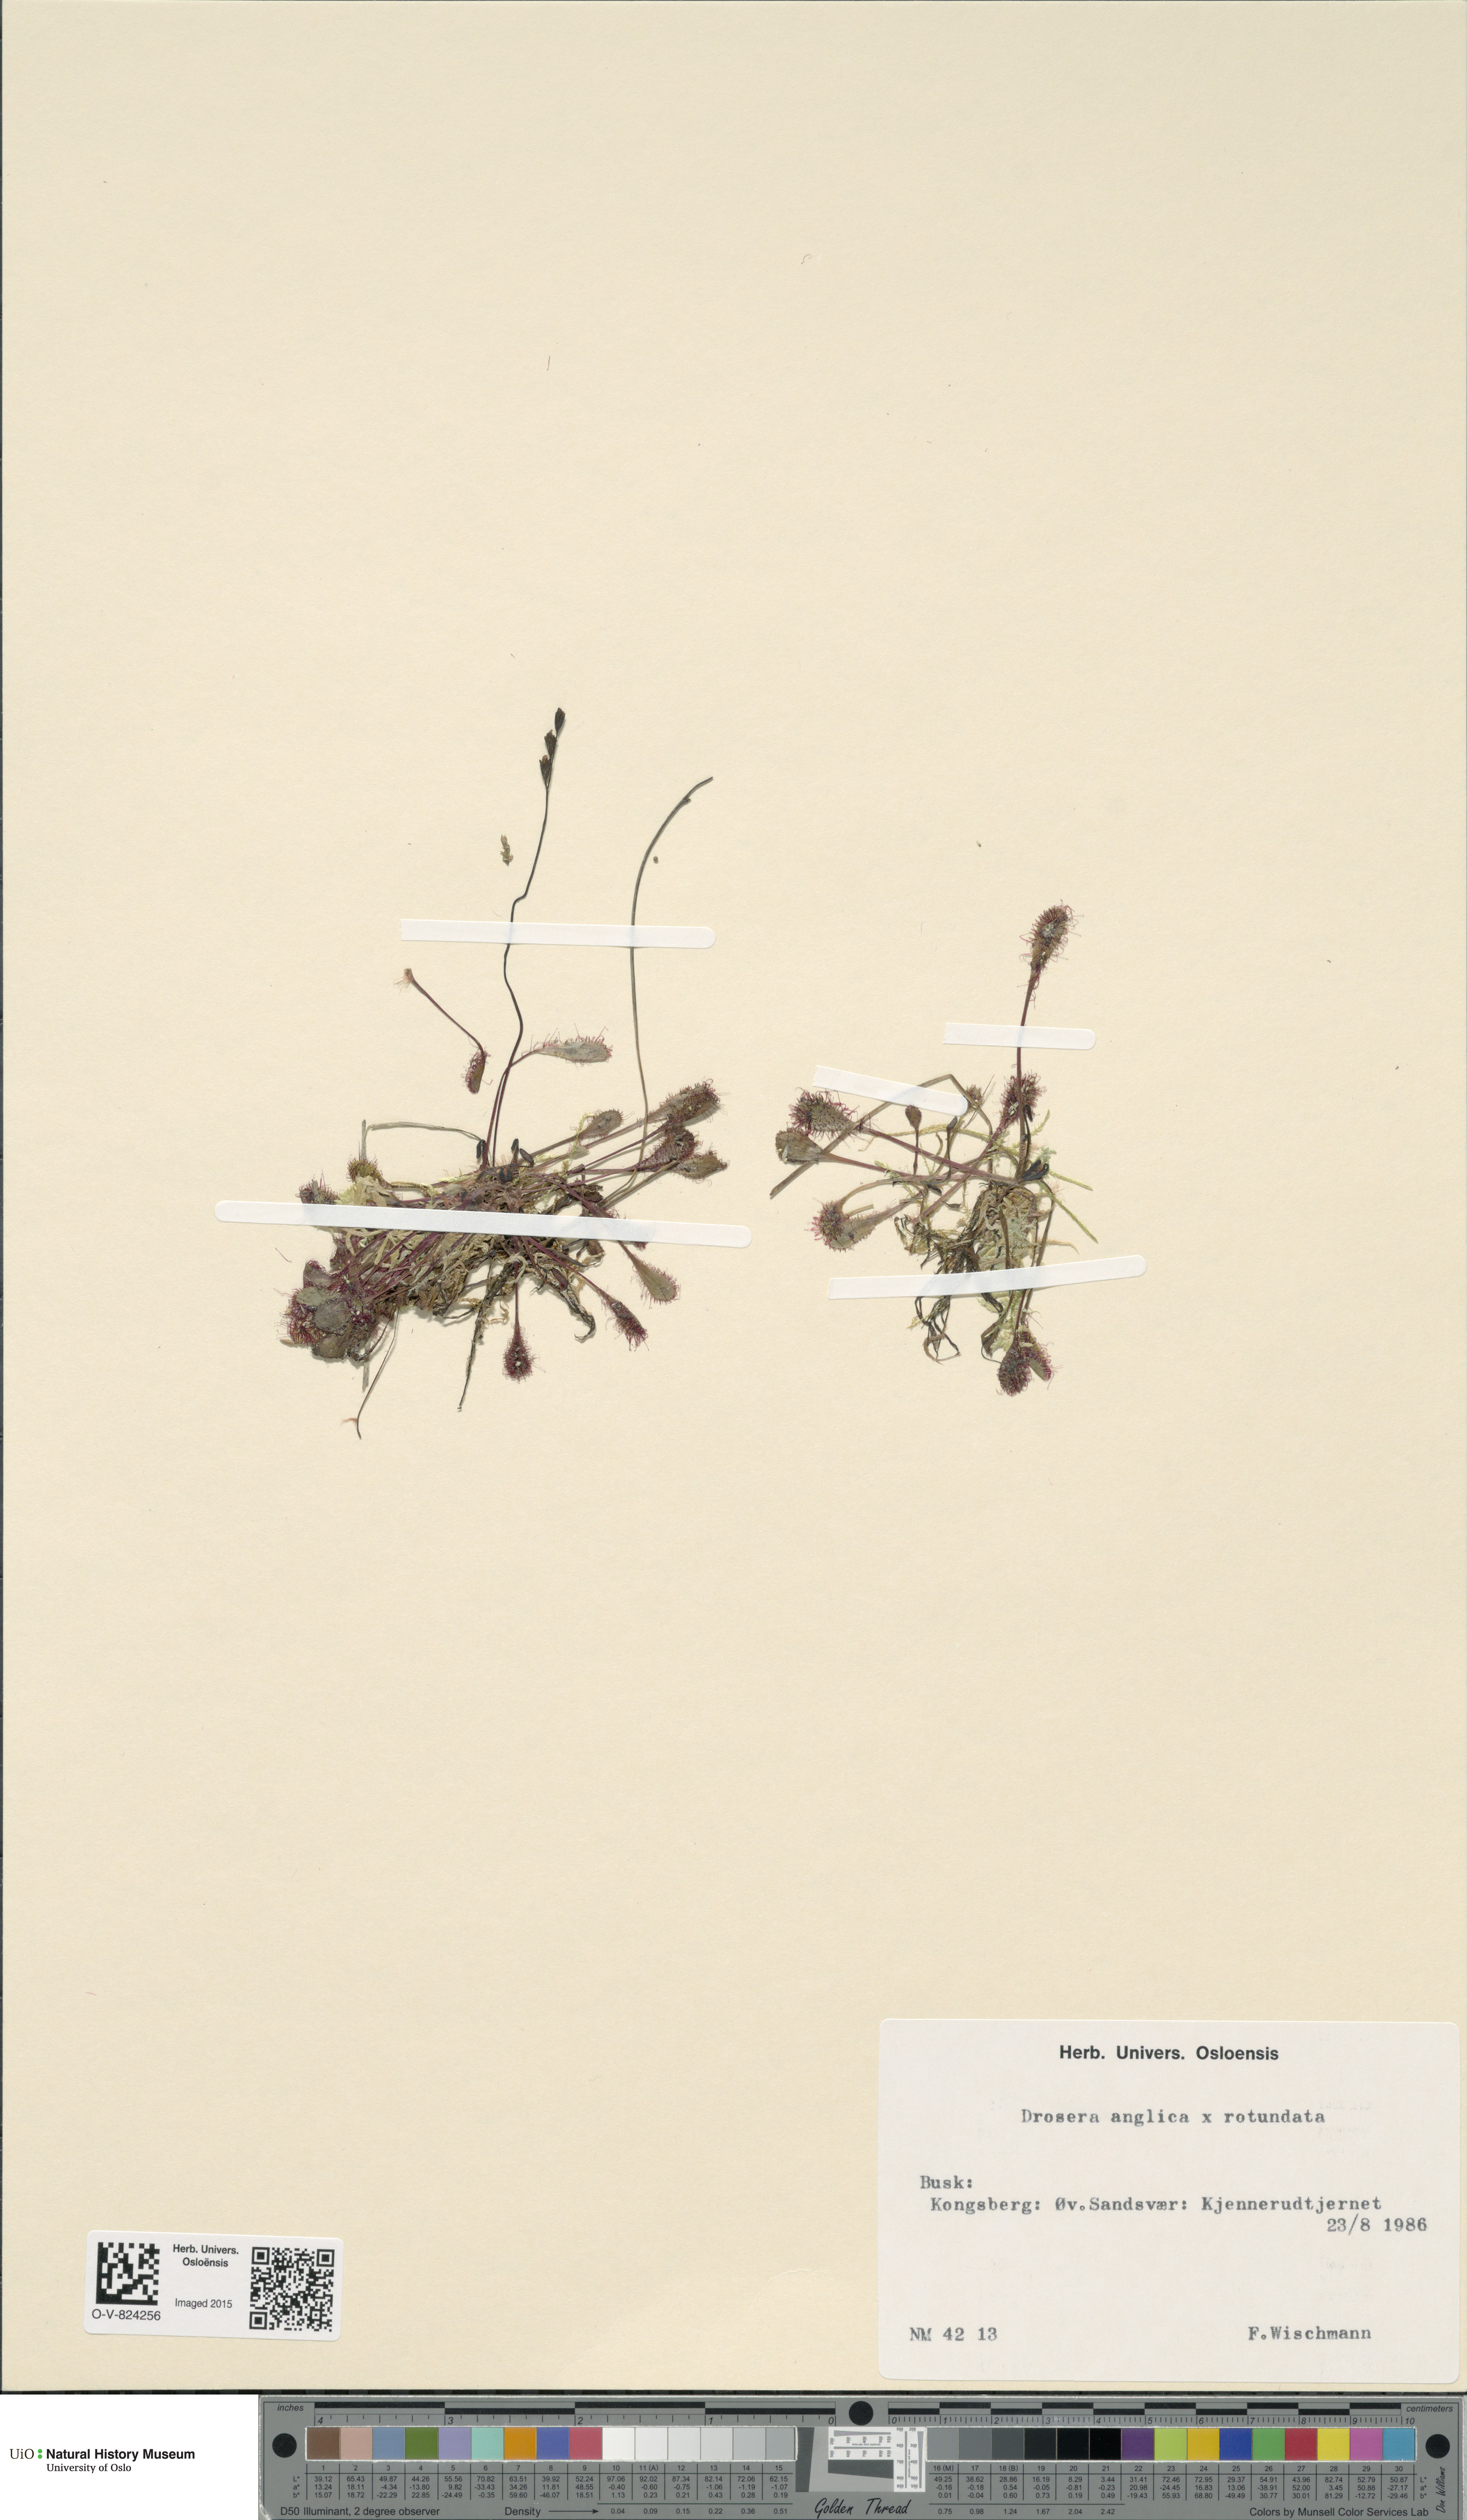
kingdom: Plantae
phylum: Tracheophyta
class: Magnoliopsida
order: Caryophyllales
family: Droseraceae
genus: Drosera
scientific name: Drosera
